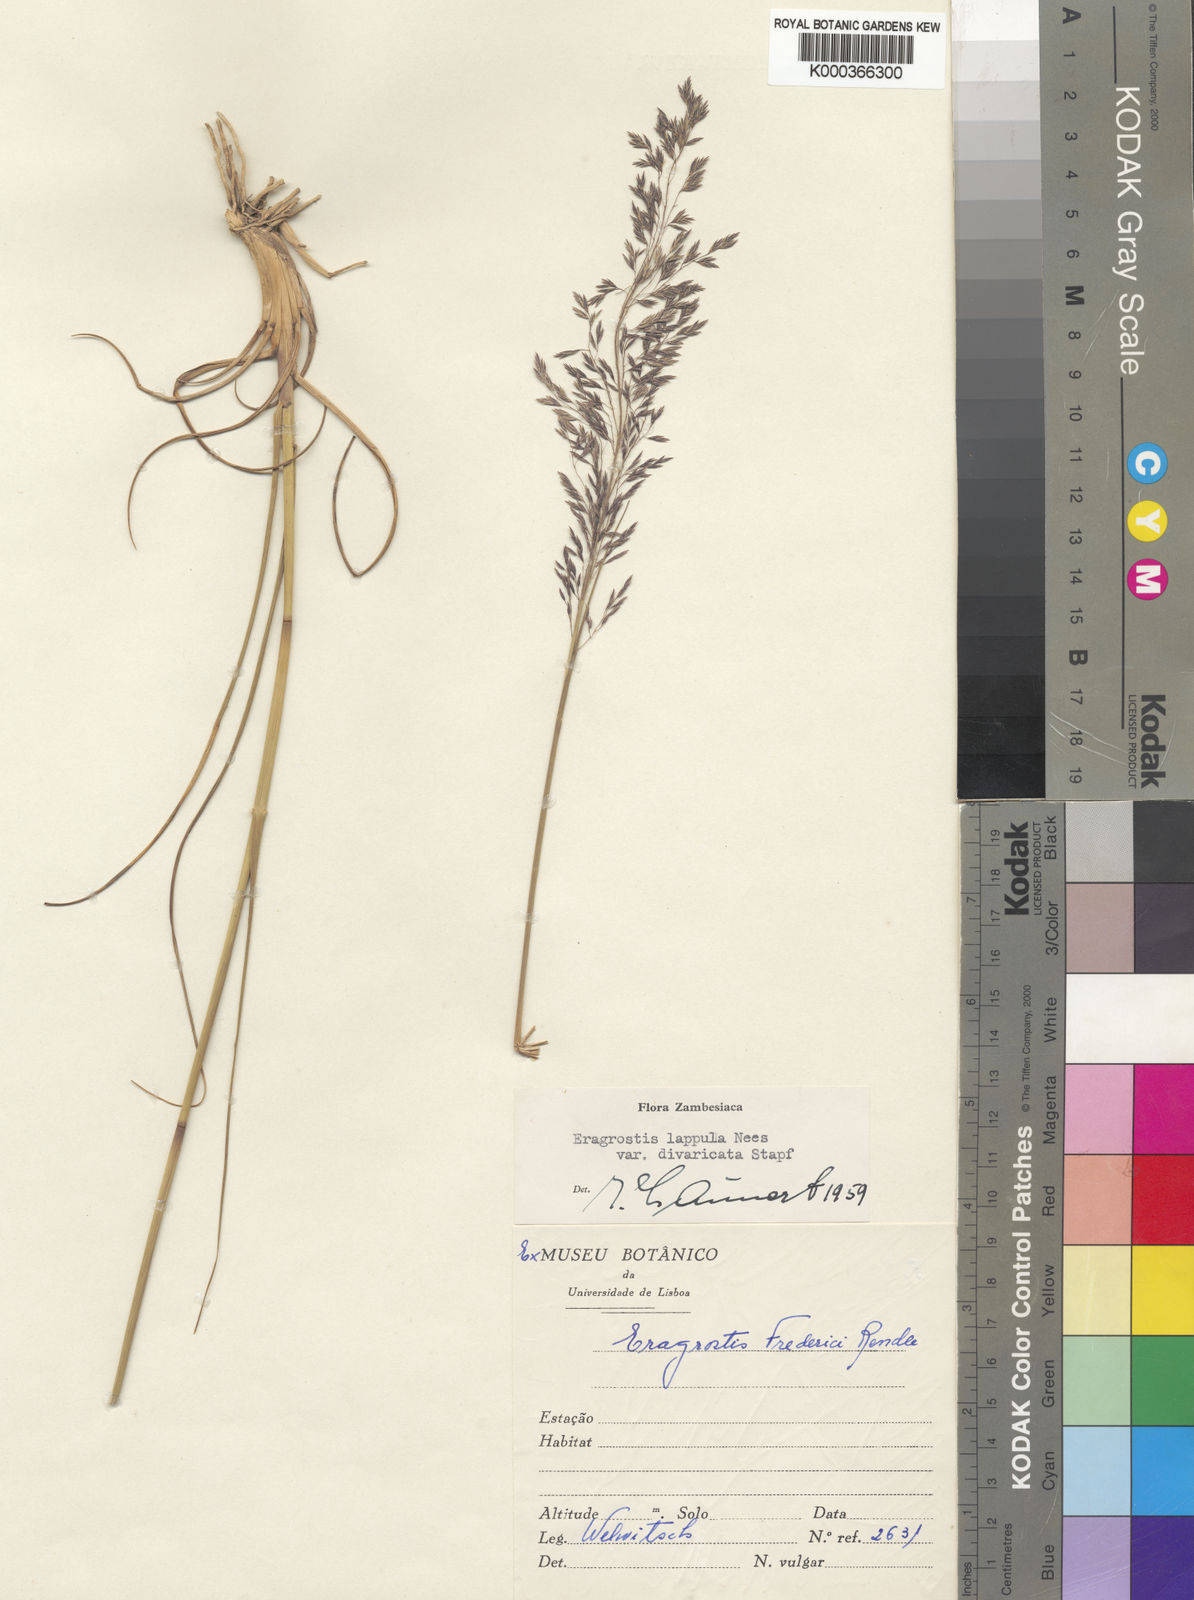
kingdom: Plantae
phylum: Tracheophyta
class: Liliopsida
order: Poales
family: Poaceae
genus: Eragrostis
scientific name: Eragrostis lappula
